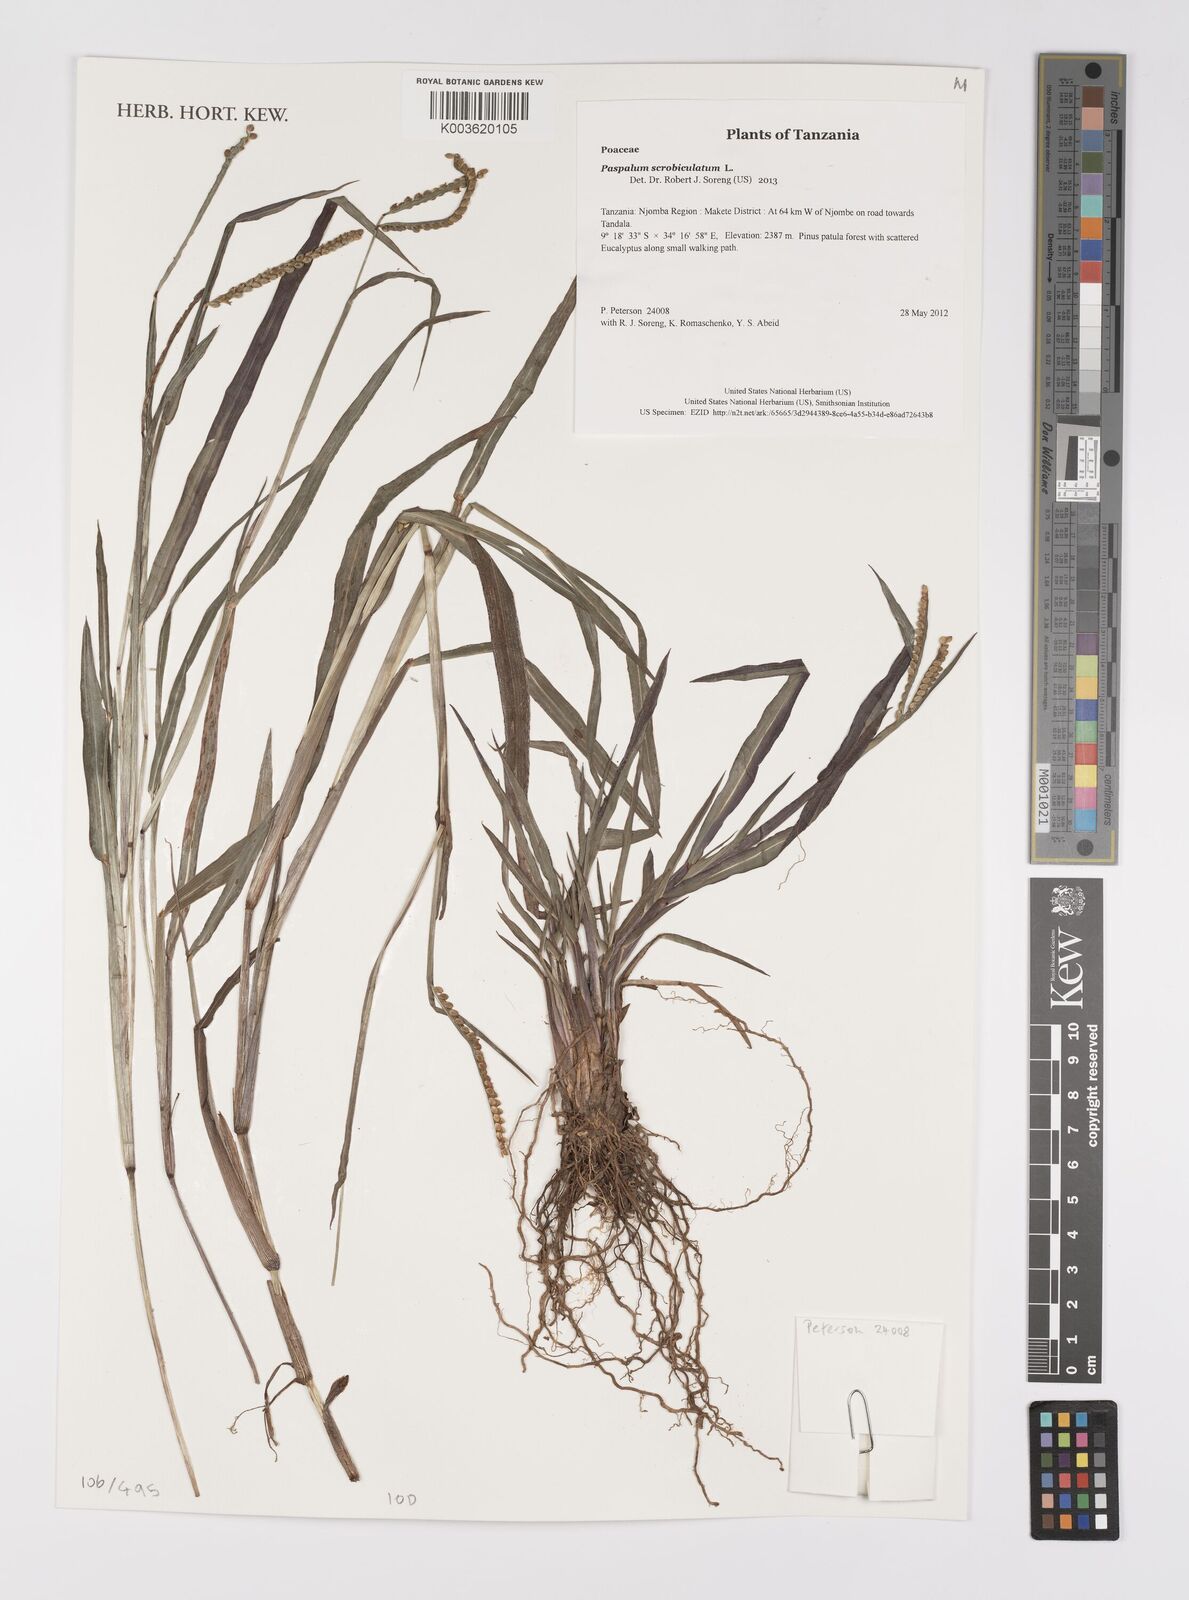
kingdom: Plantae
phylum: Tracheophyta
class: Liliopsida
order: Poales
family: Poaceae
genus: Paspalum
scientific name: Paspalum scrobiculatum
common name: Kodo millet
